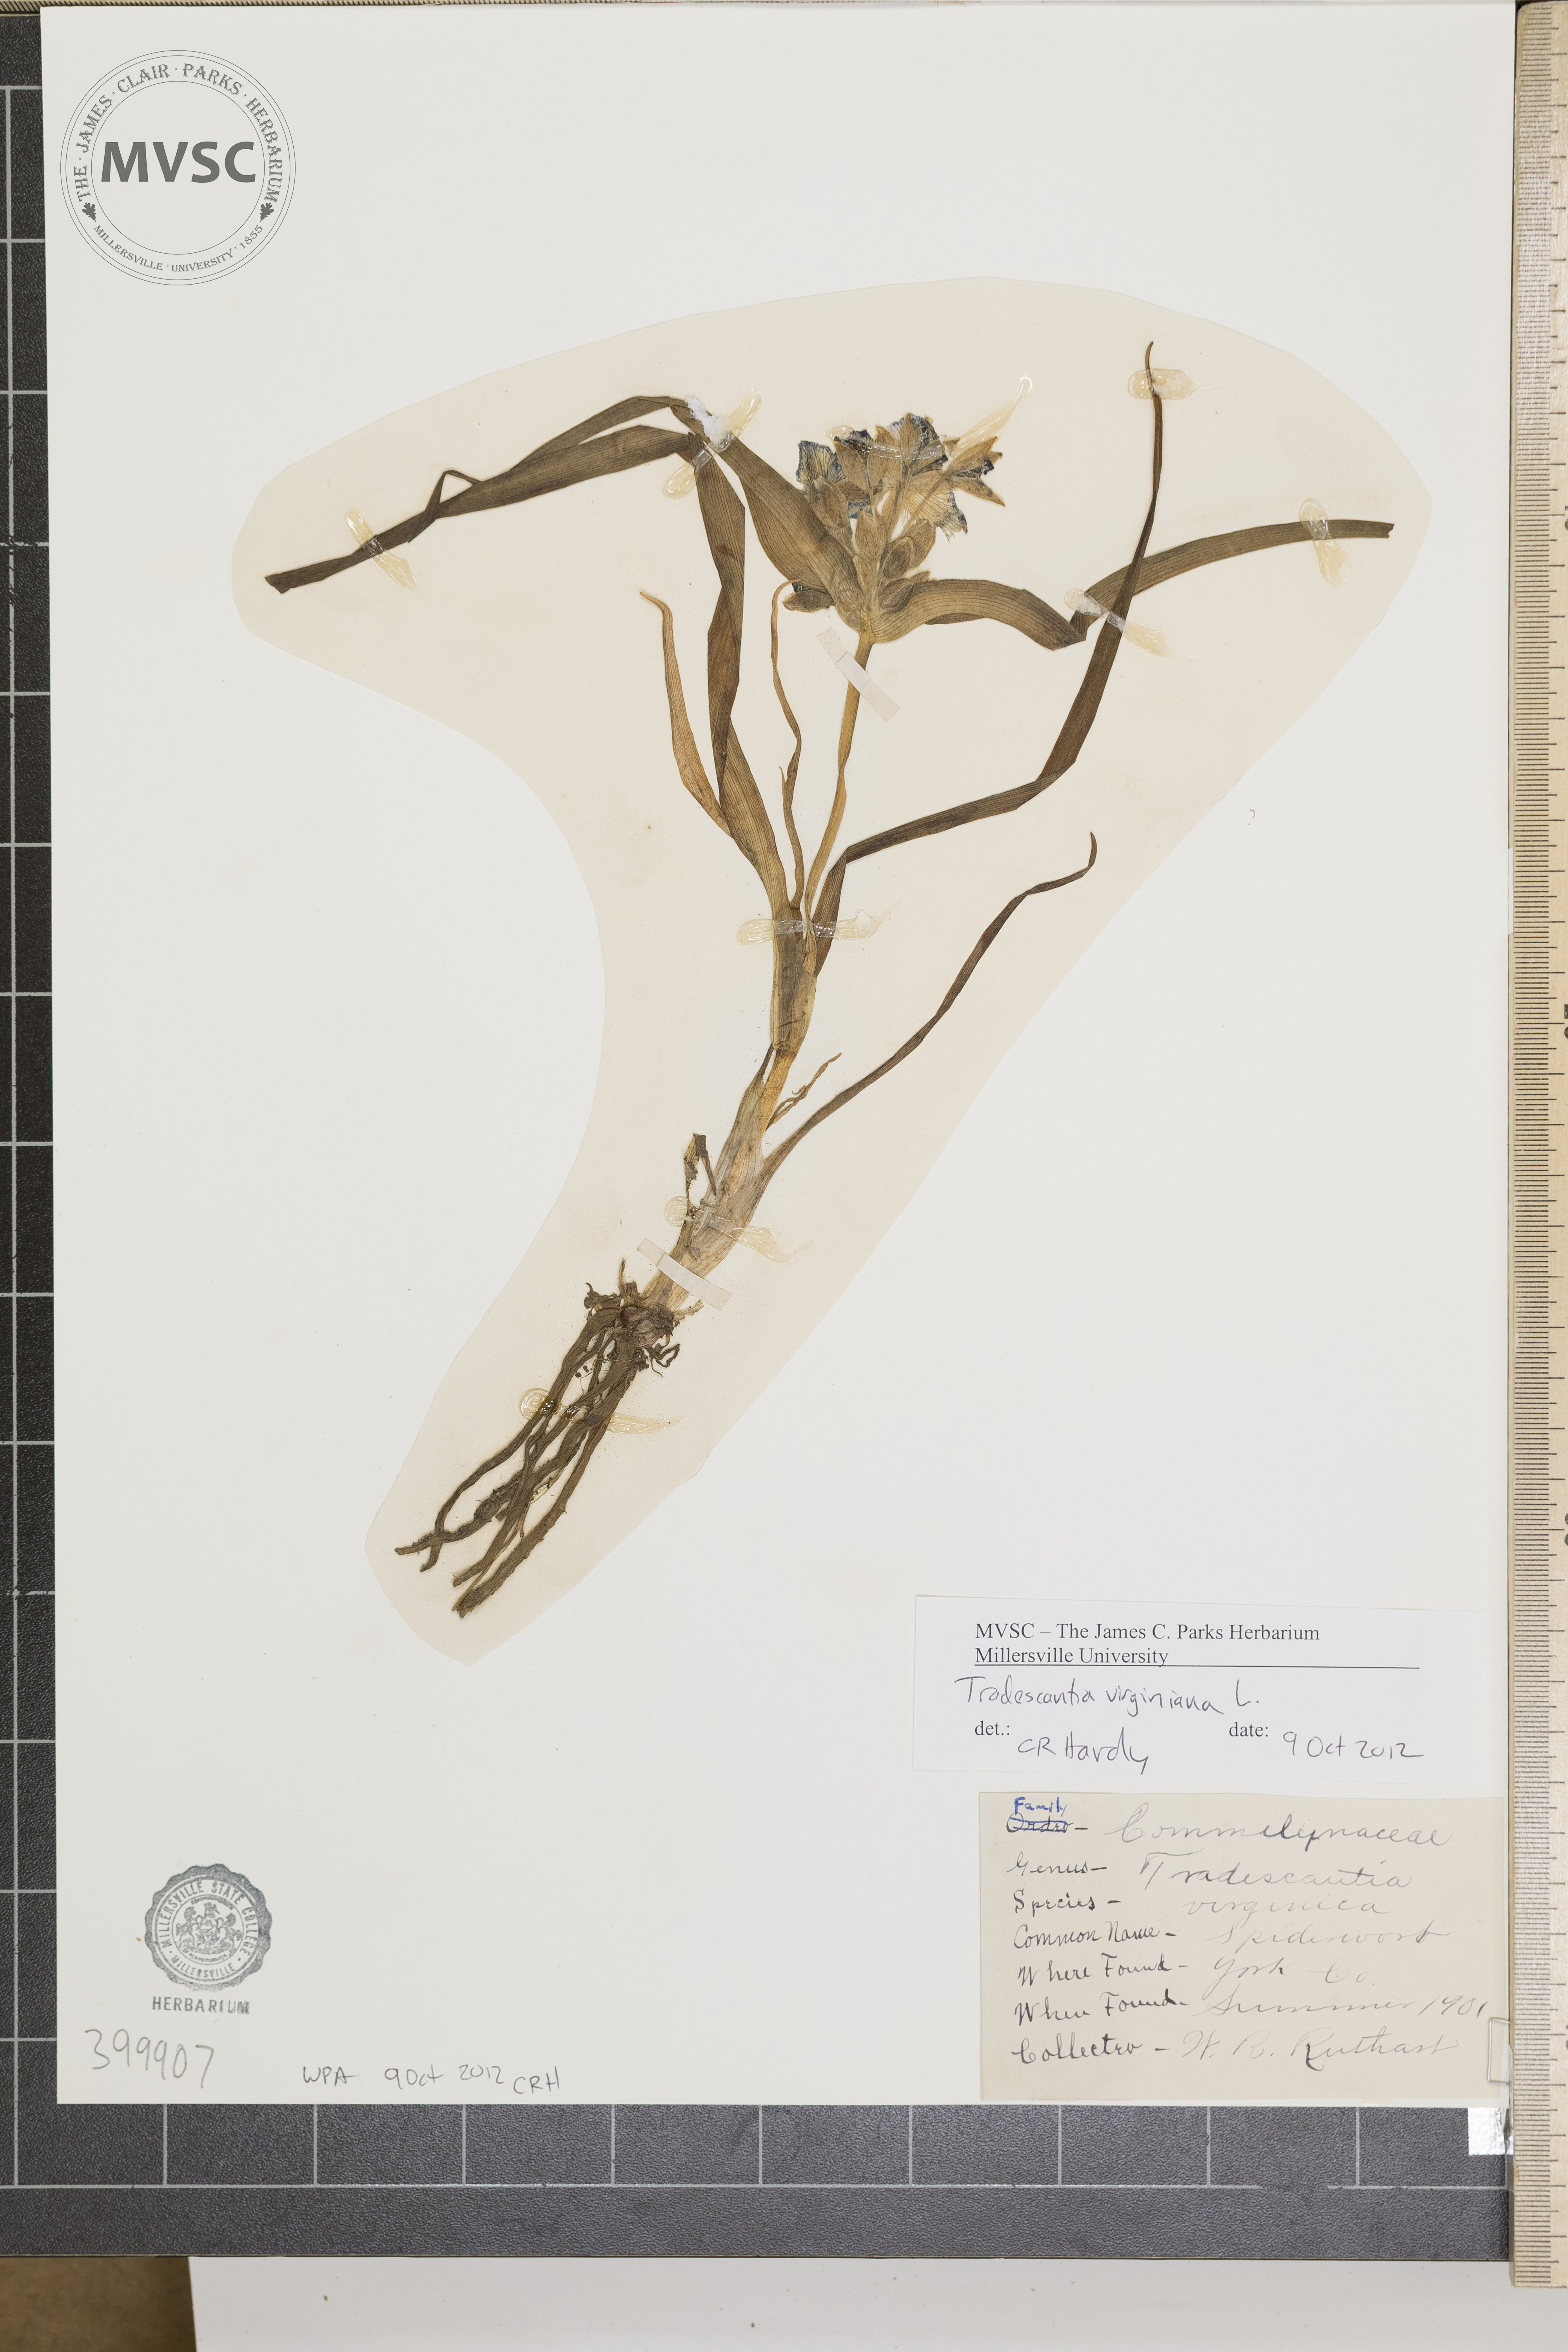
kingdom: Plantae
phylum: Tracheophyta
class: Liliopsida
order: Commelinales
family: Commelinaceae
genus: Tradescantia
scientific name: Tradescantia virginiana
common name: Virginia spiderwort
